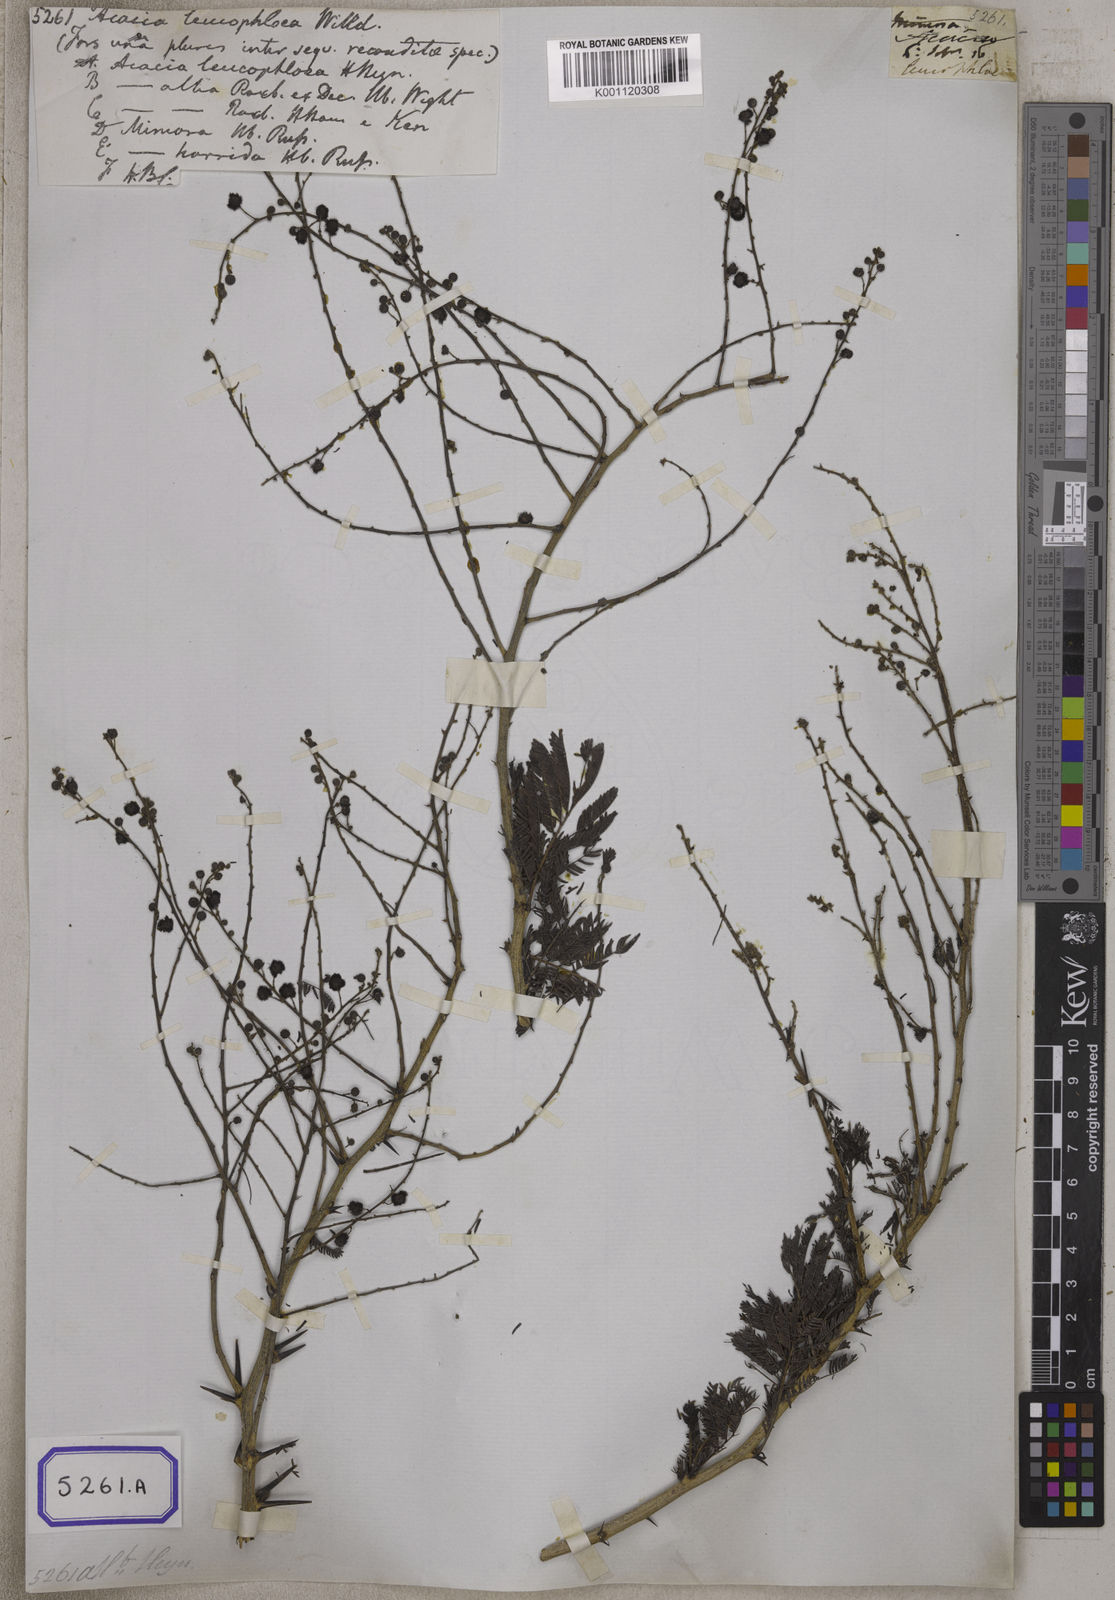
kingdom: Plantae
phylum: Tracheophyta
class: Magnoliopsida
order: Fabales
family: Fabaceae
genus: Vachellia
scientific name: Vachellia leucophloea
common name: Distiller's acacia
